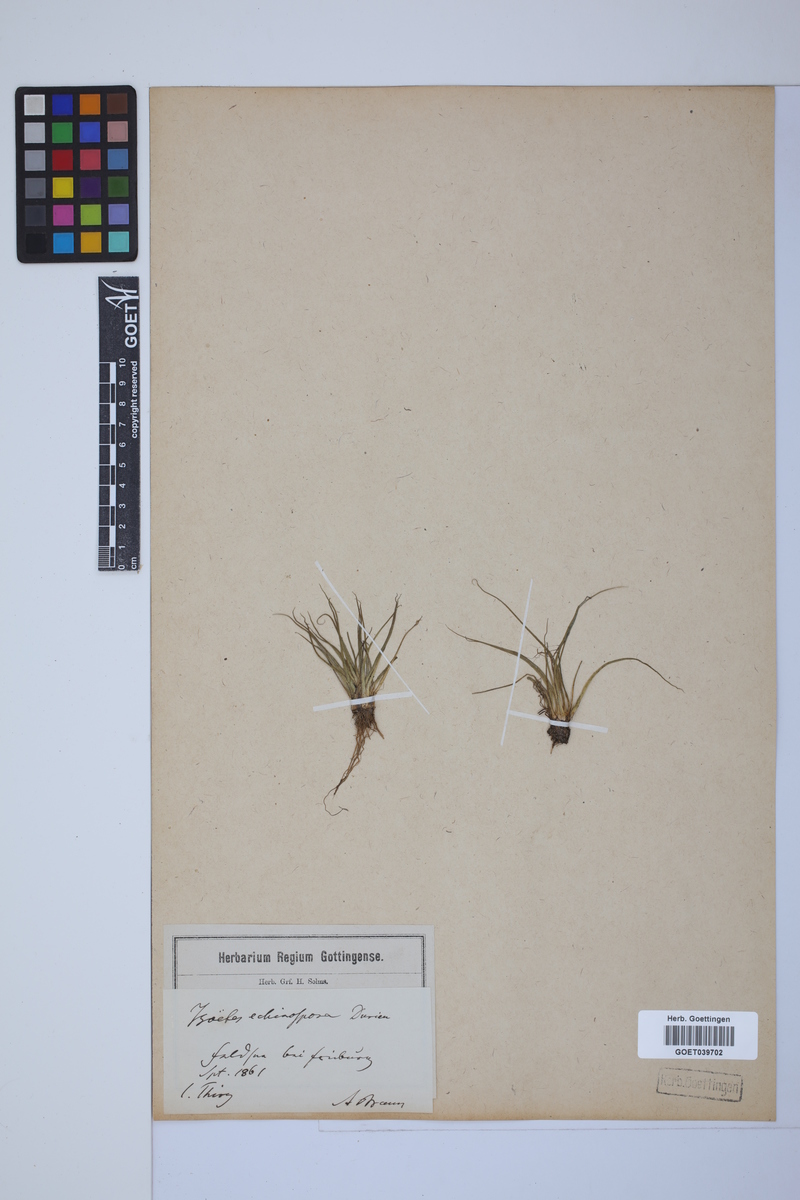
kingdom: Plantae
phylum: Tracheophyta
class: Lycopodiopsida
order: Isoetales
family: Isoetaceae
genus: Isoetes
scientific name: Isoetes echinospora
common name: Spring quillwort
